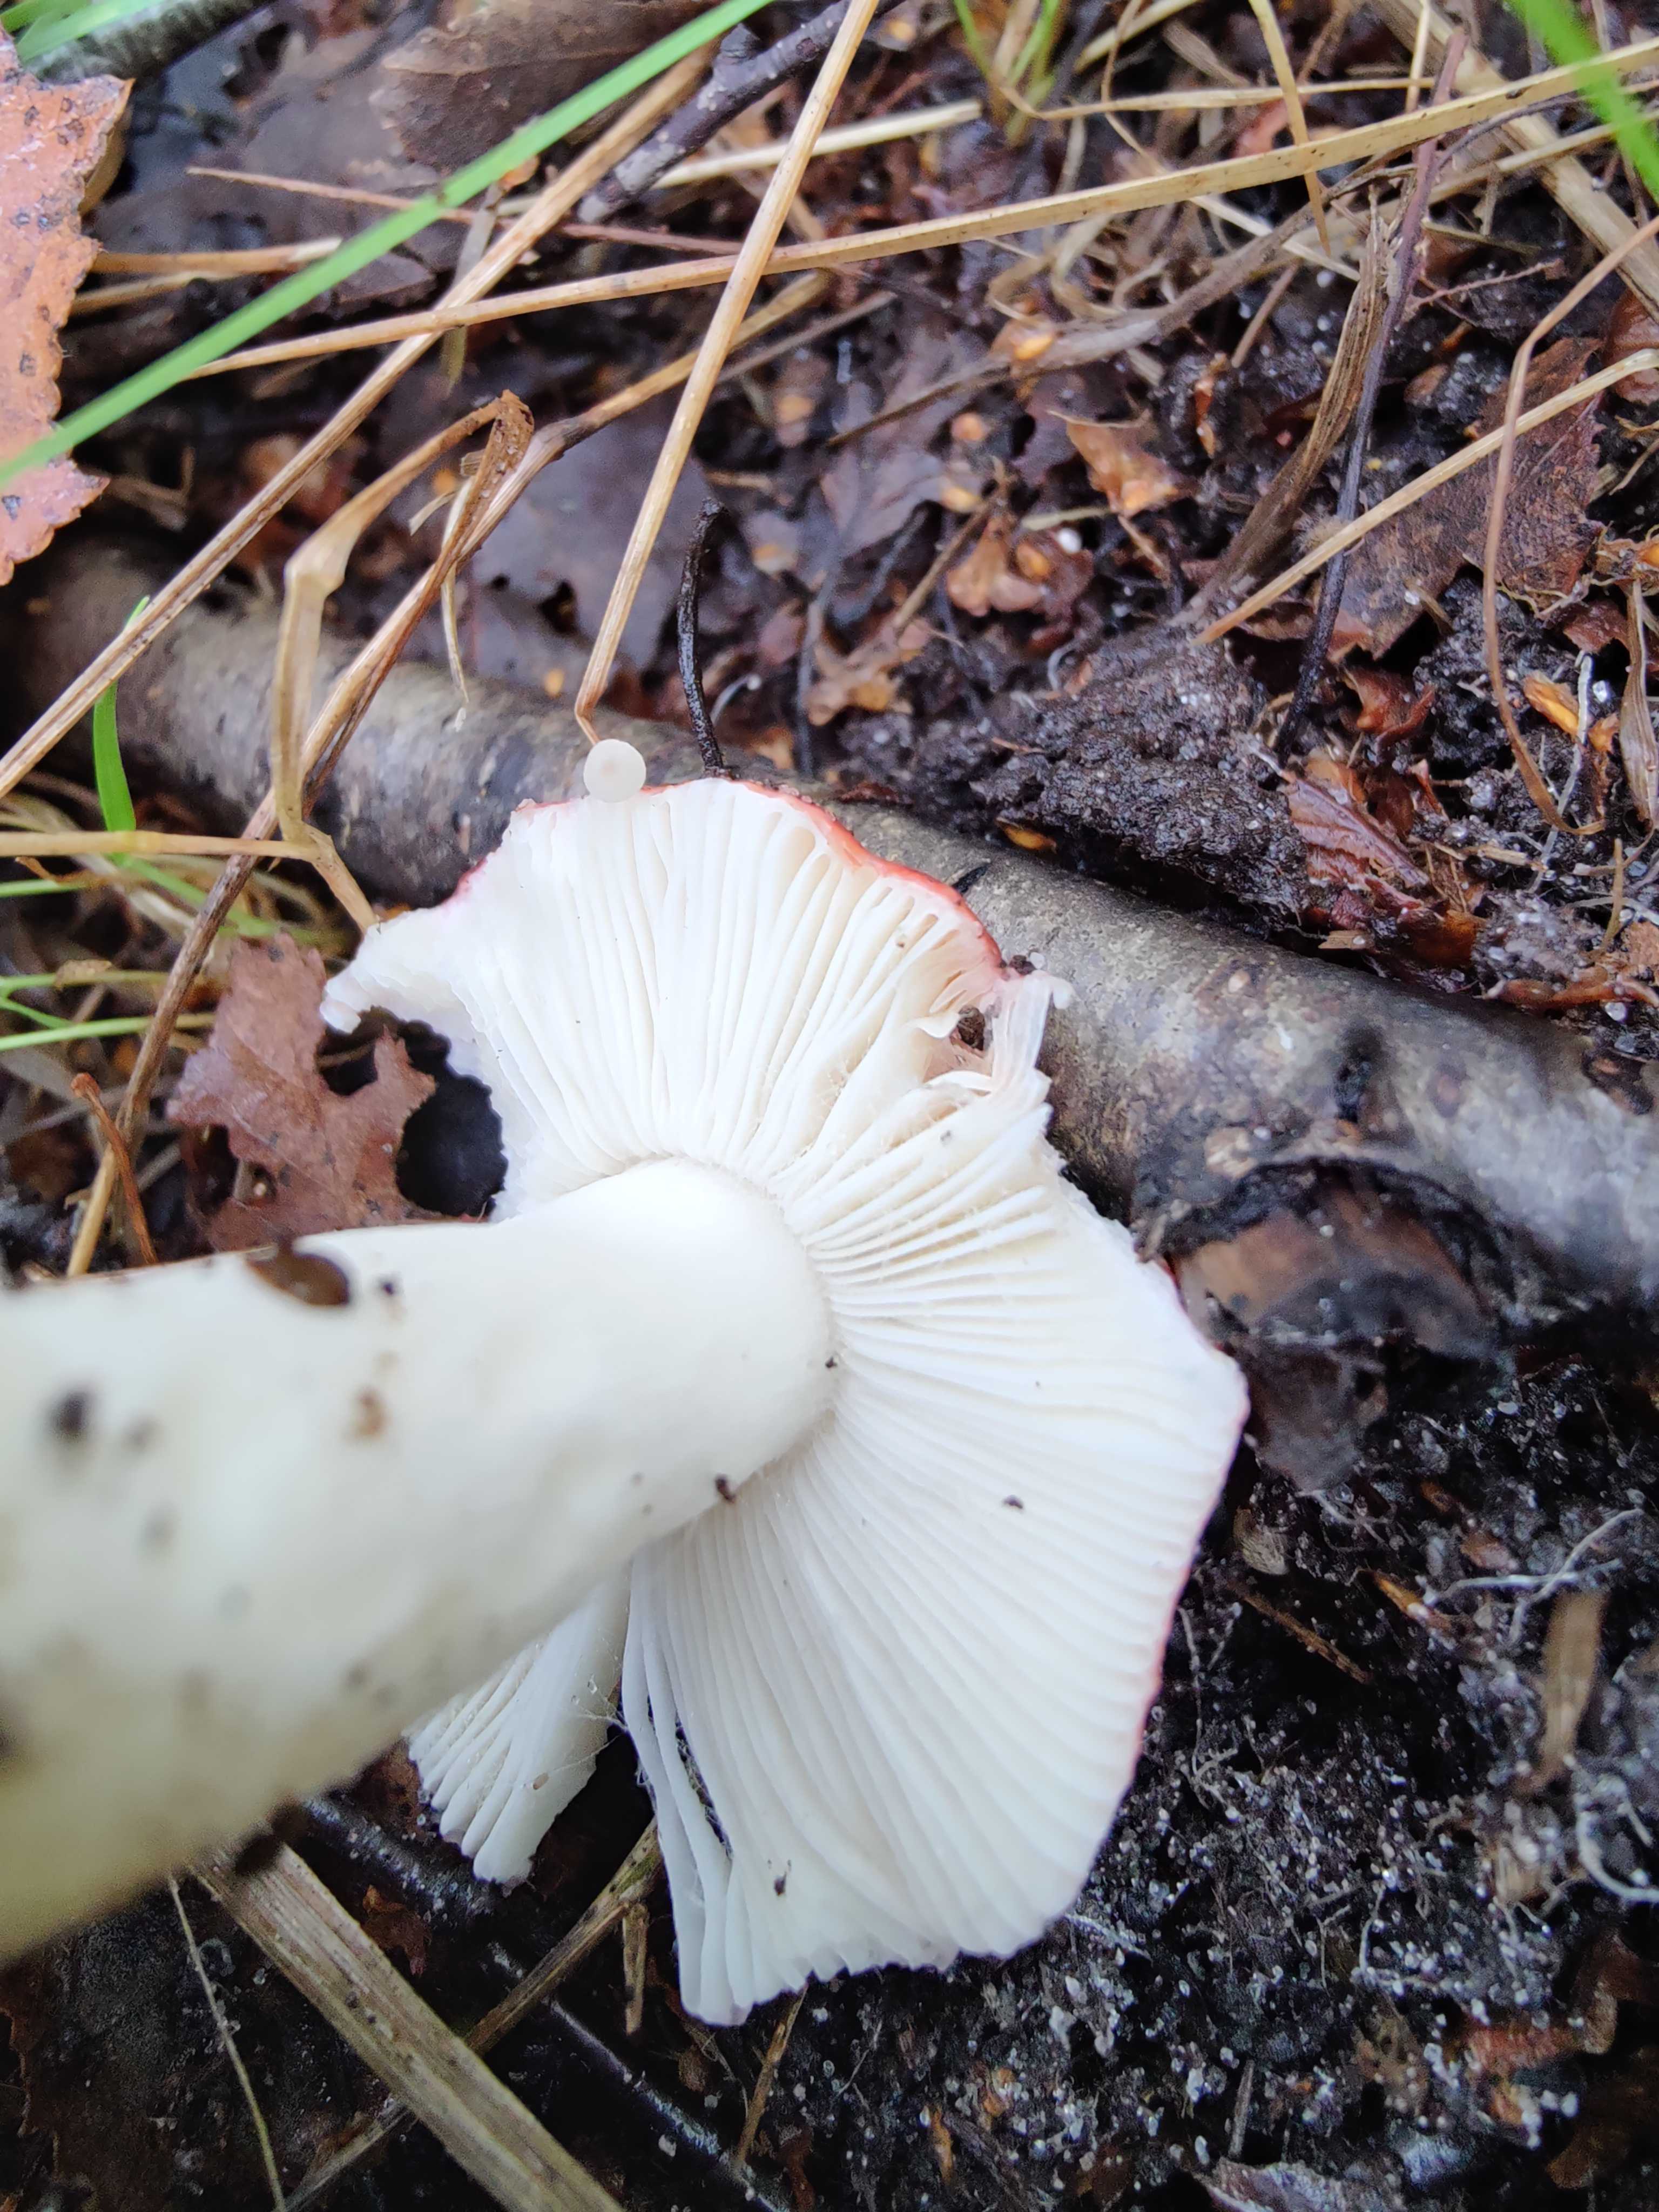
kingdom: Fungi
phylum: Basidiomycota
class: Agaricomycetes
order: Russulales
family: Russulaceae
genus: Russula
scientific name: Russula
